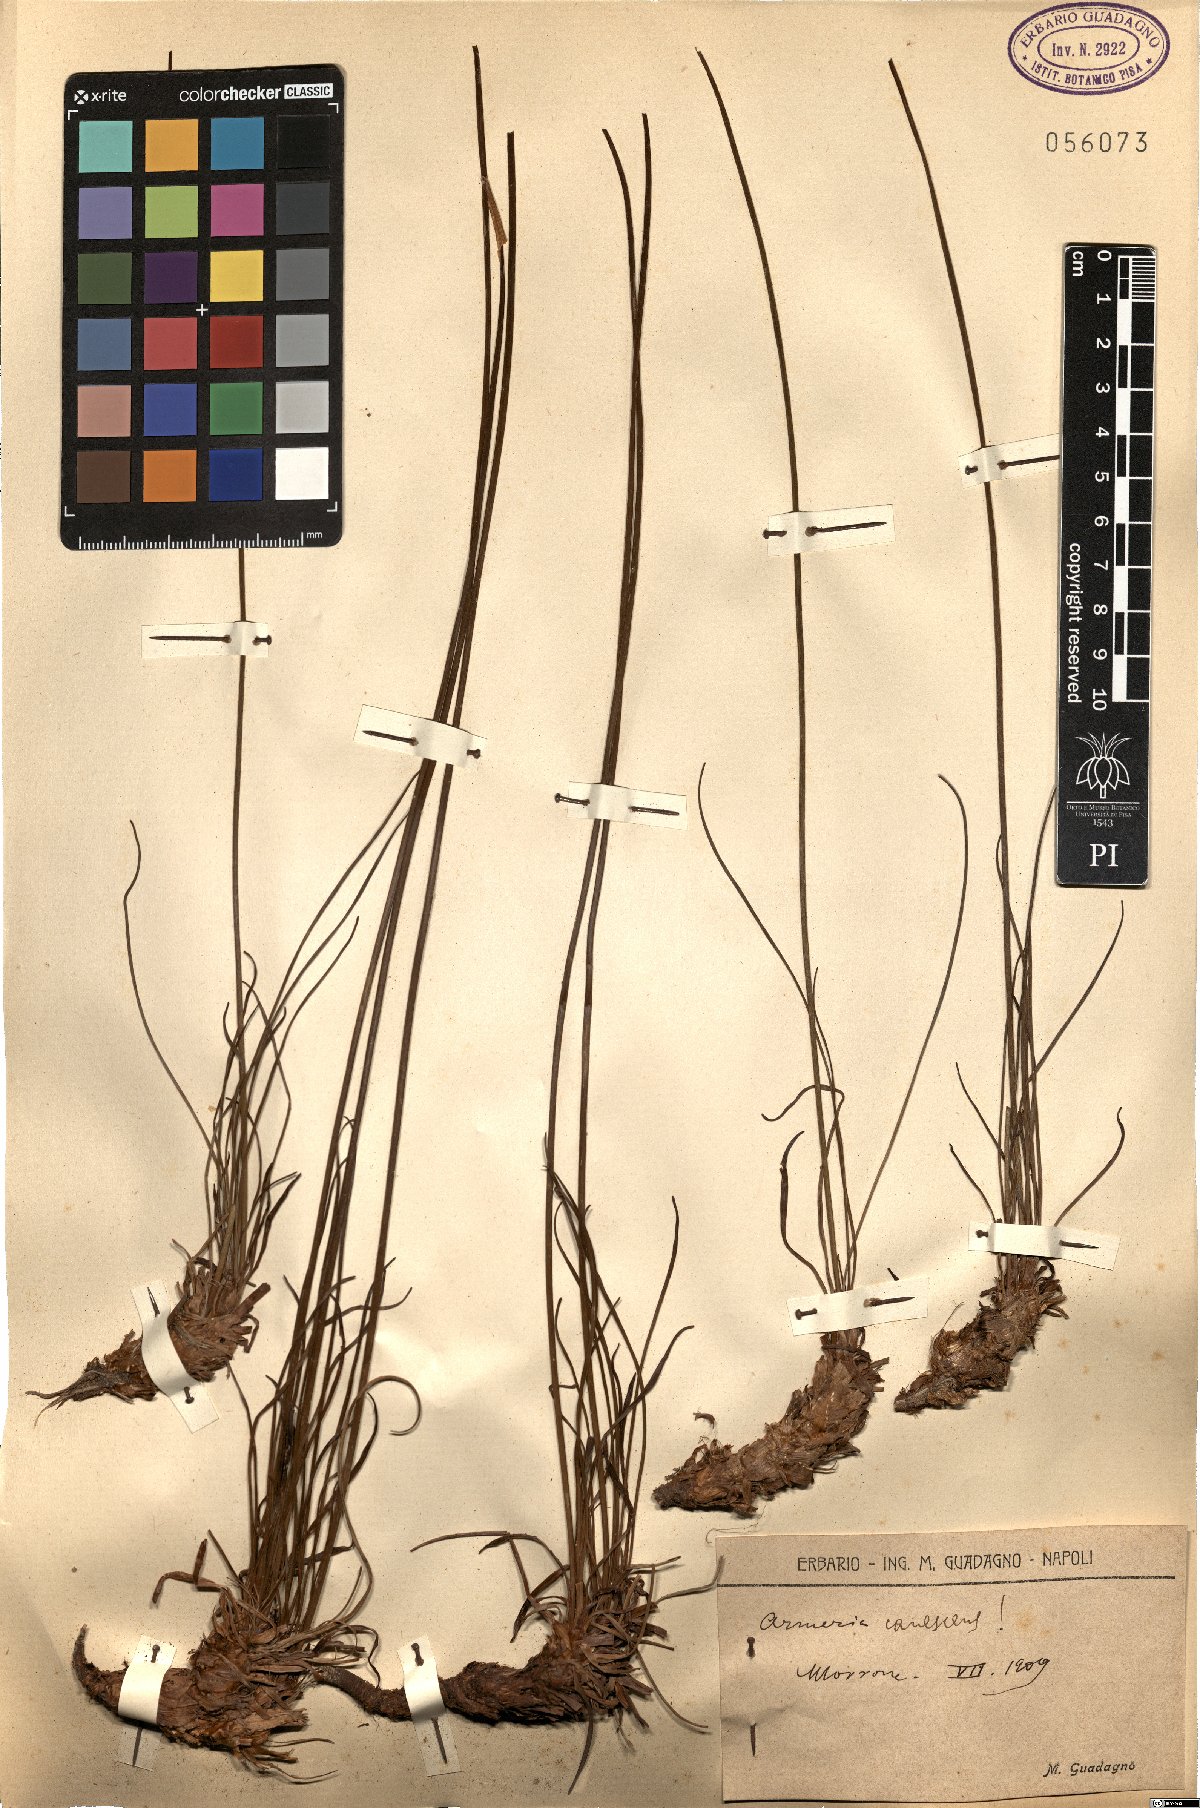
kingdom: Plantae
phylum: Tracheophyta
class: Magnoliopsida
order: Caryophyllales
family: Plumbaginaceae
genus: Armeria
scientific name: Armeria canescens
